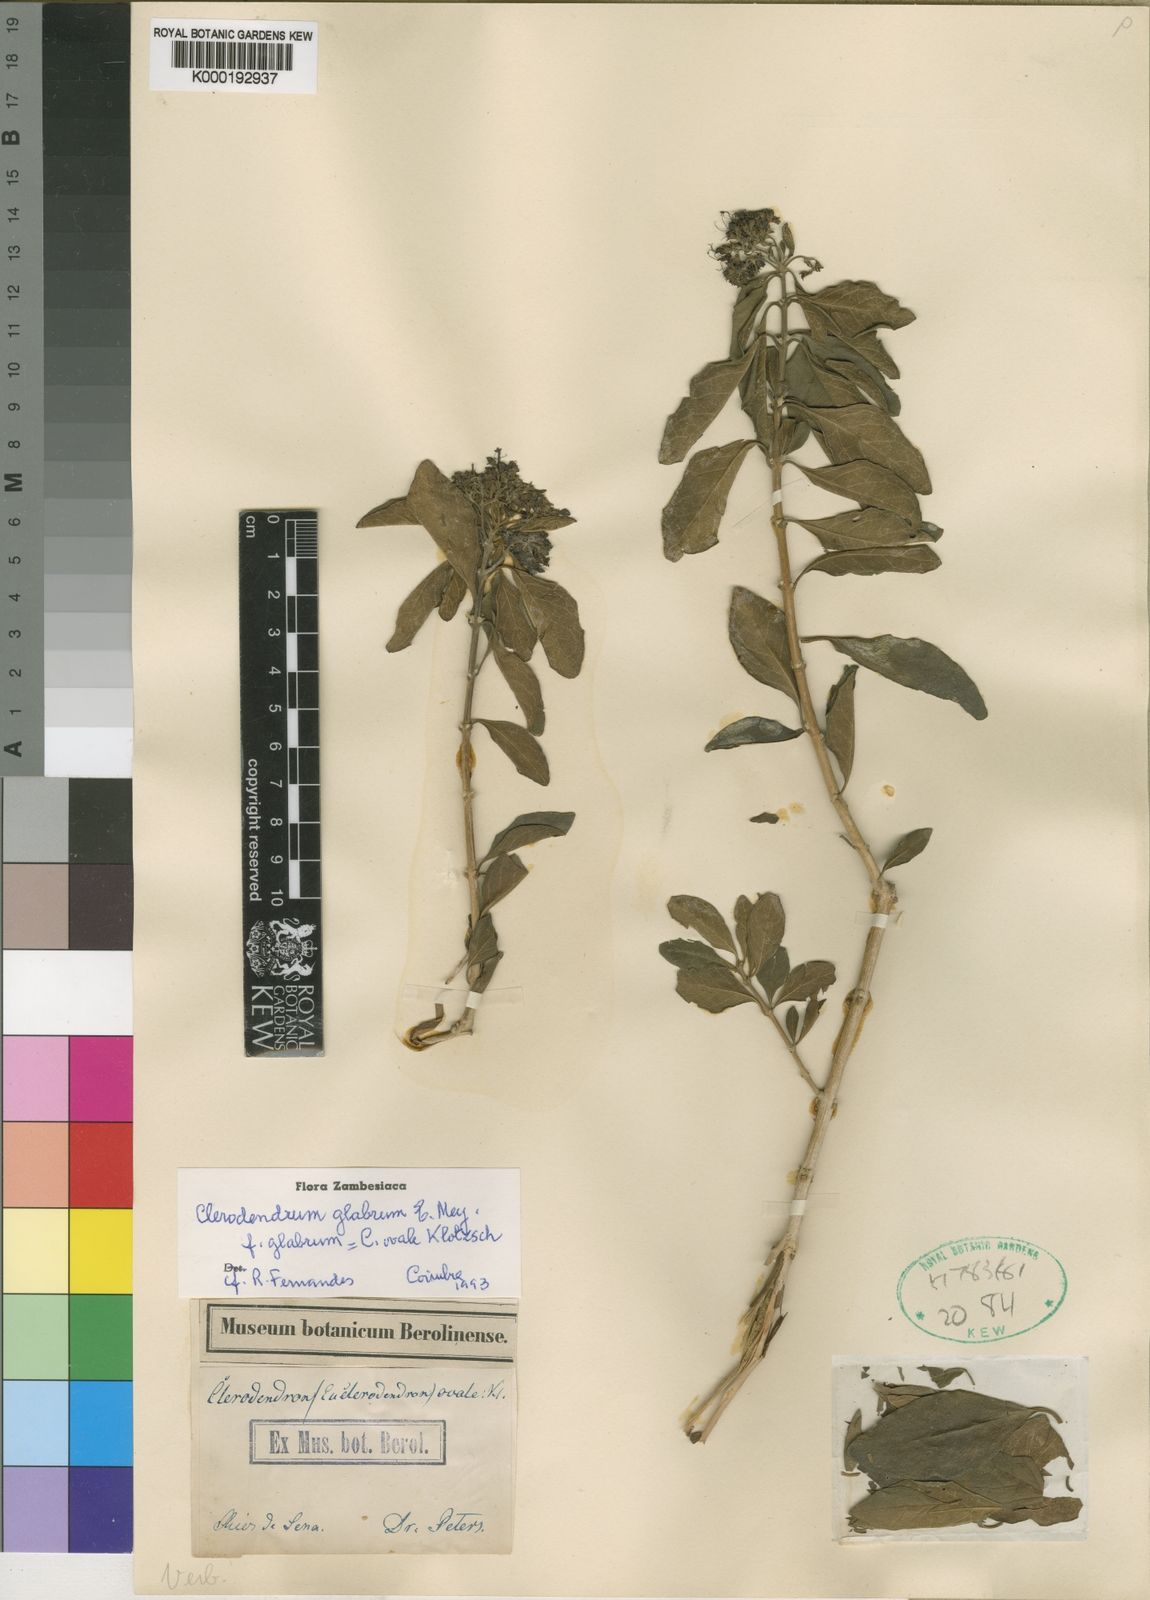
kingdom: Plantae
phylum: Tracheophyta
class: Magnoliopsida
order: Lamiales
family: Lamiaceae
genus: Volkameria
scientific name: Volkameria glabra
